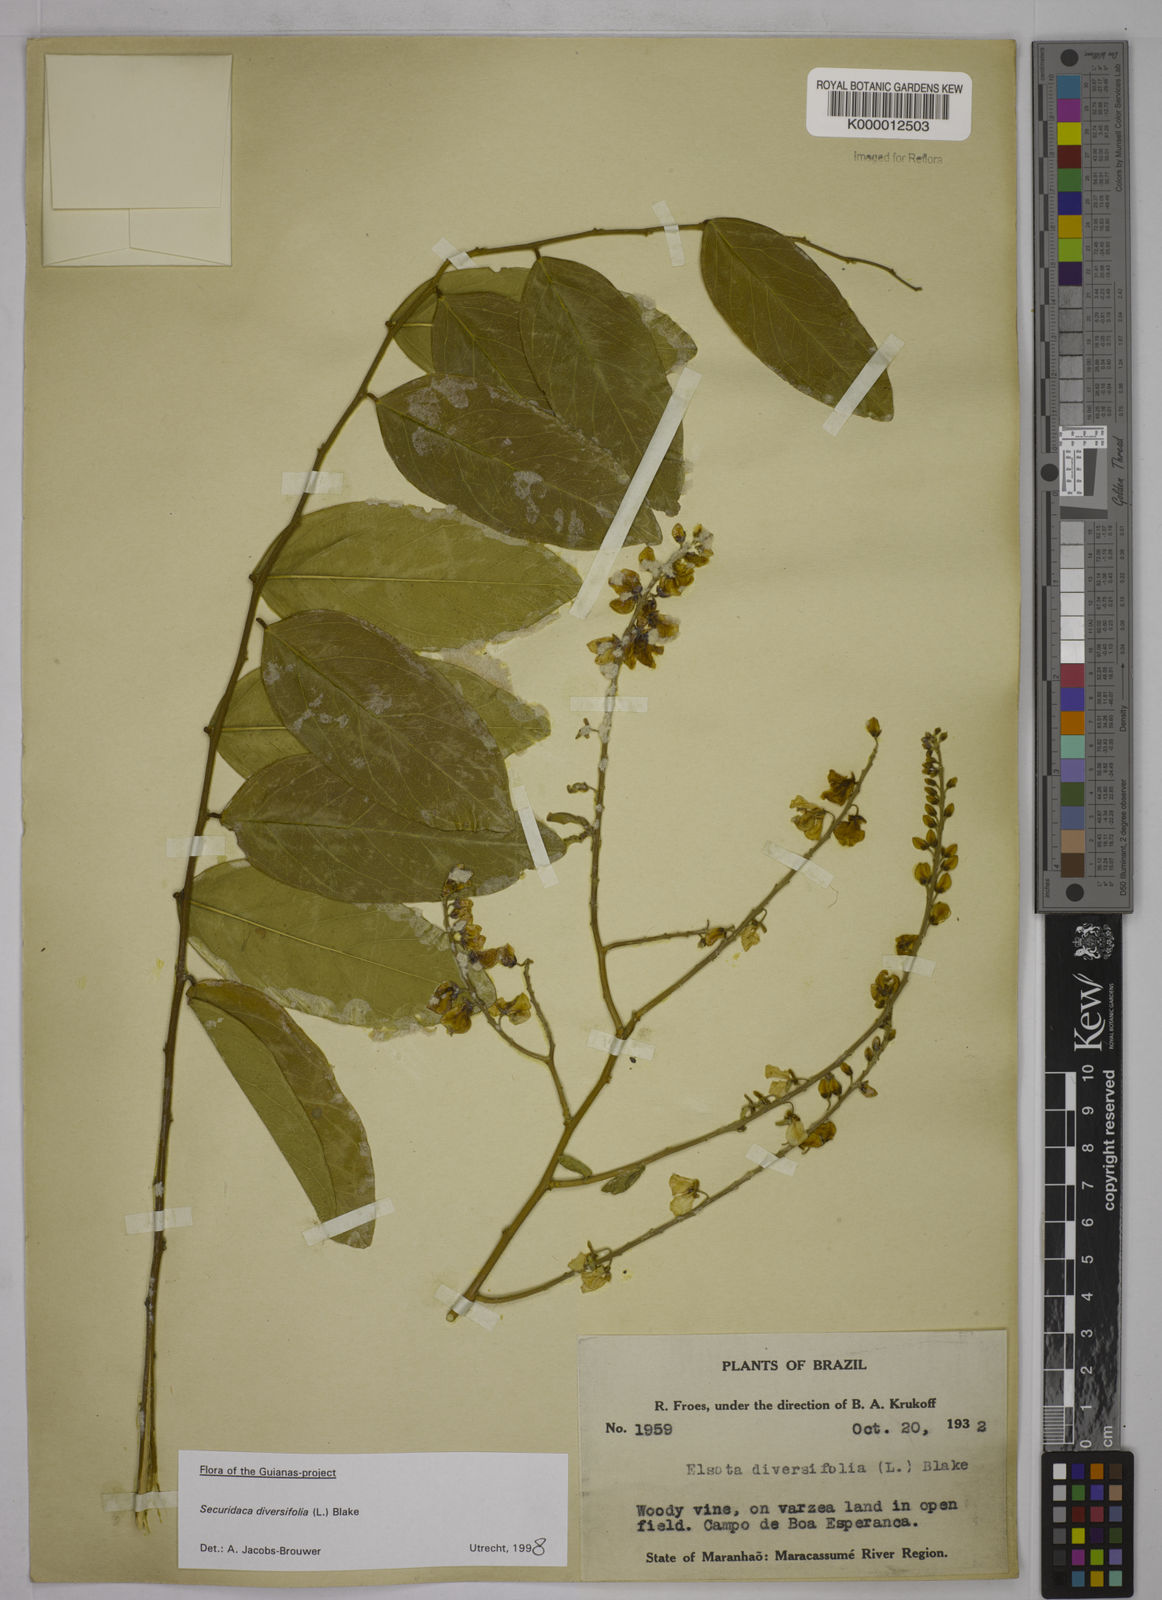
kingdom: Plantae
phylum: Tracheophyta
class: Magnoliopsida
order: Fabales
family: Polygalaceae
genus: Securidaca
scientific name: Securidaca diversifolia
